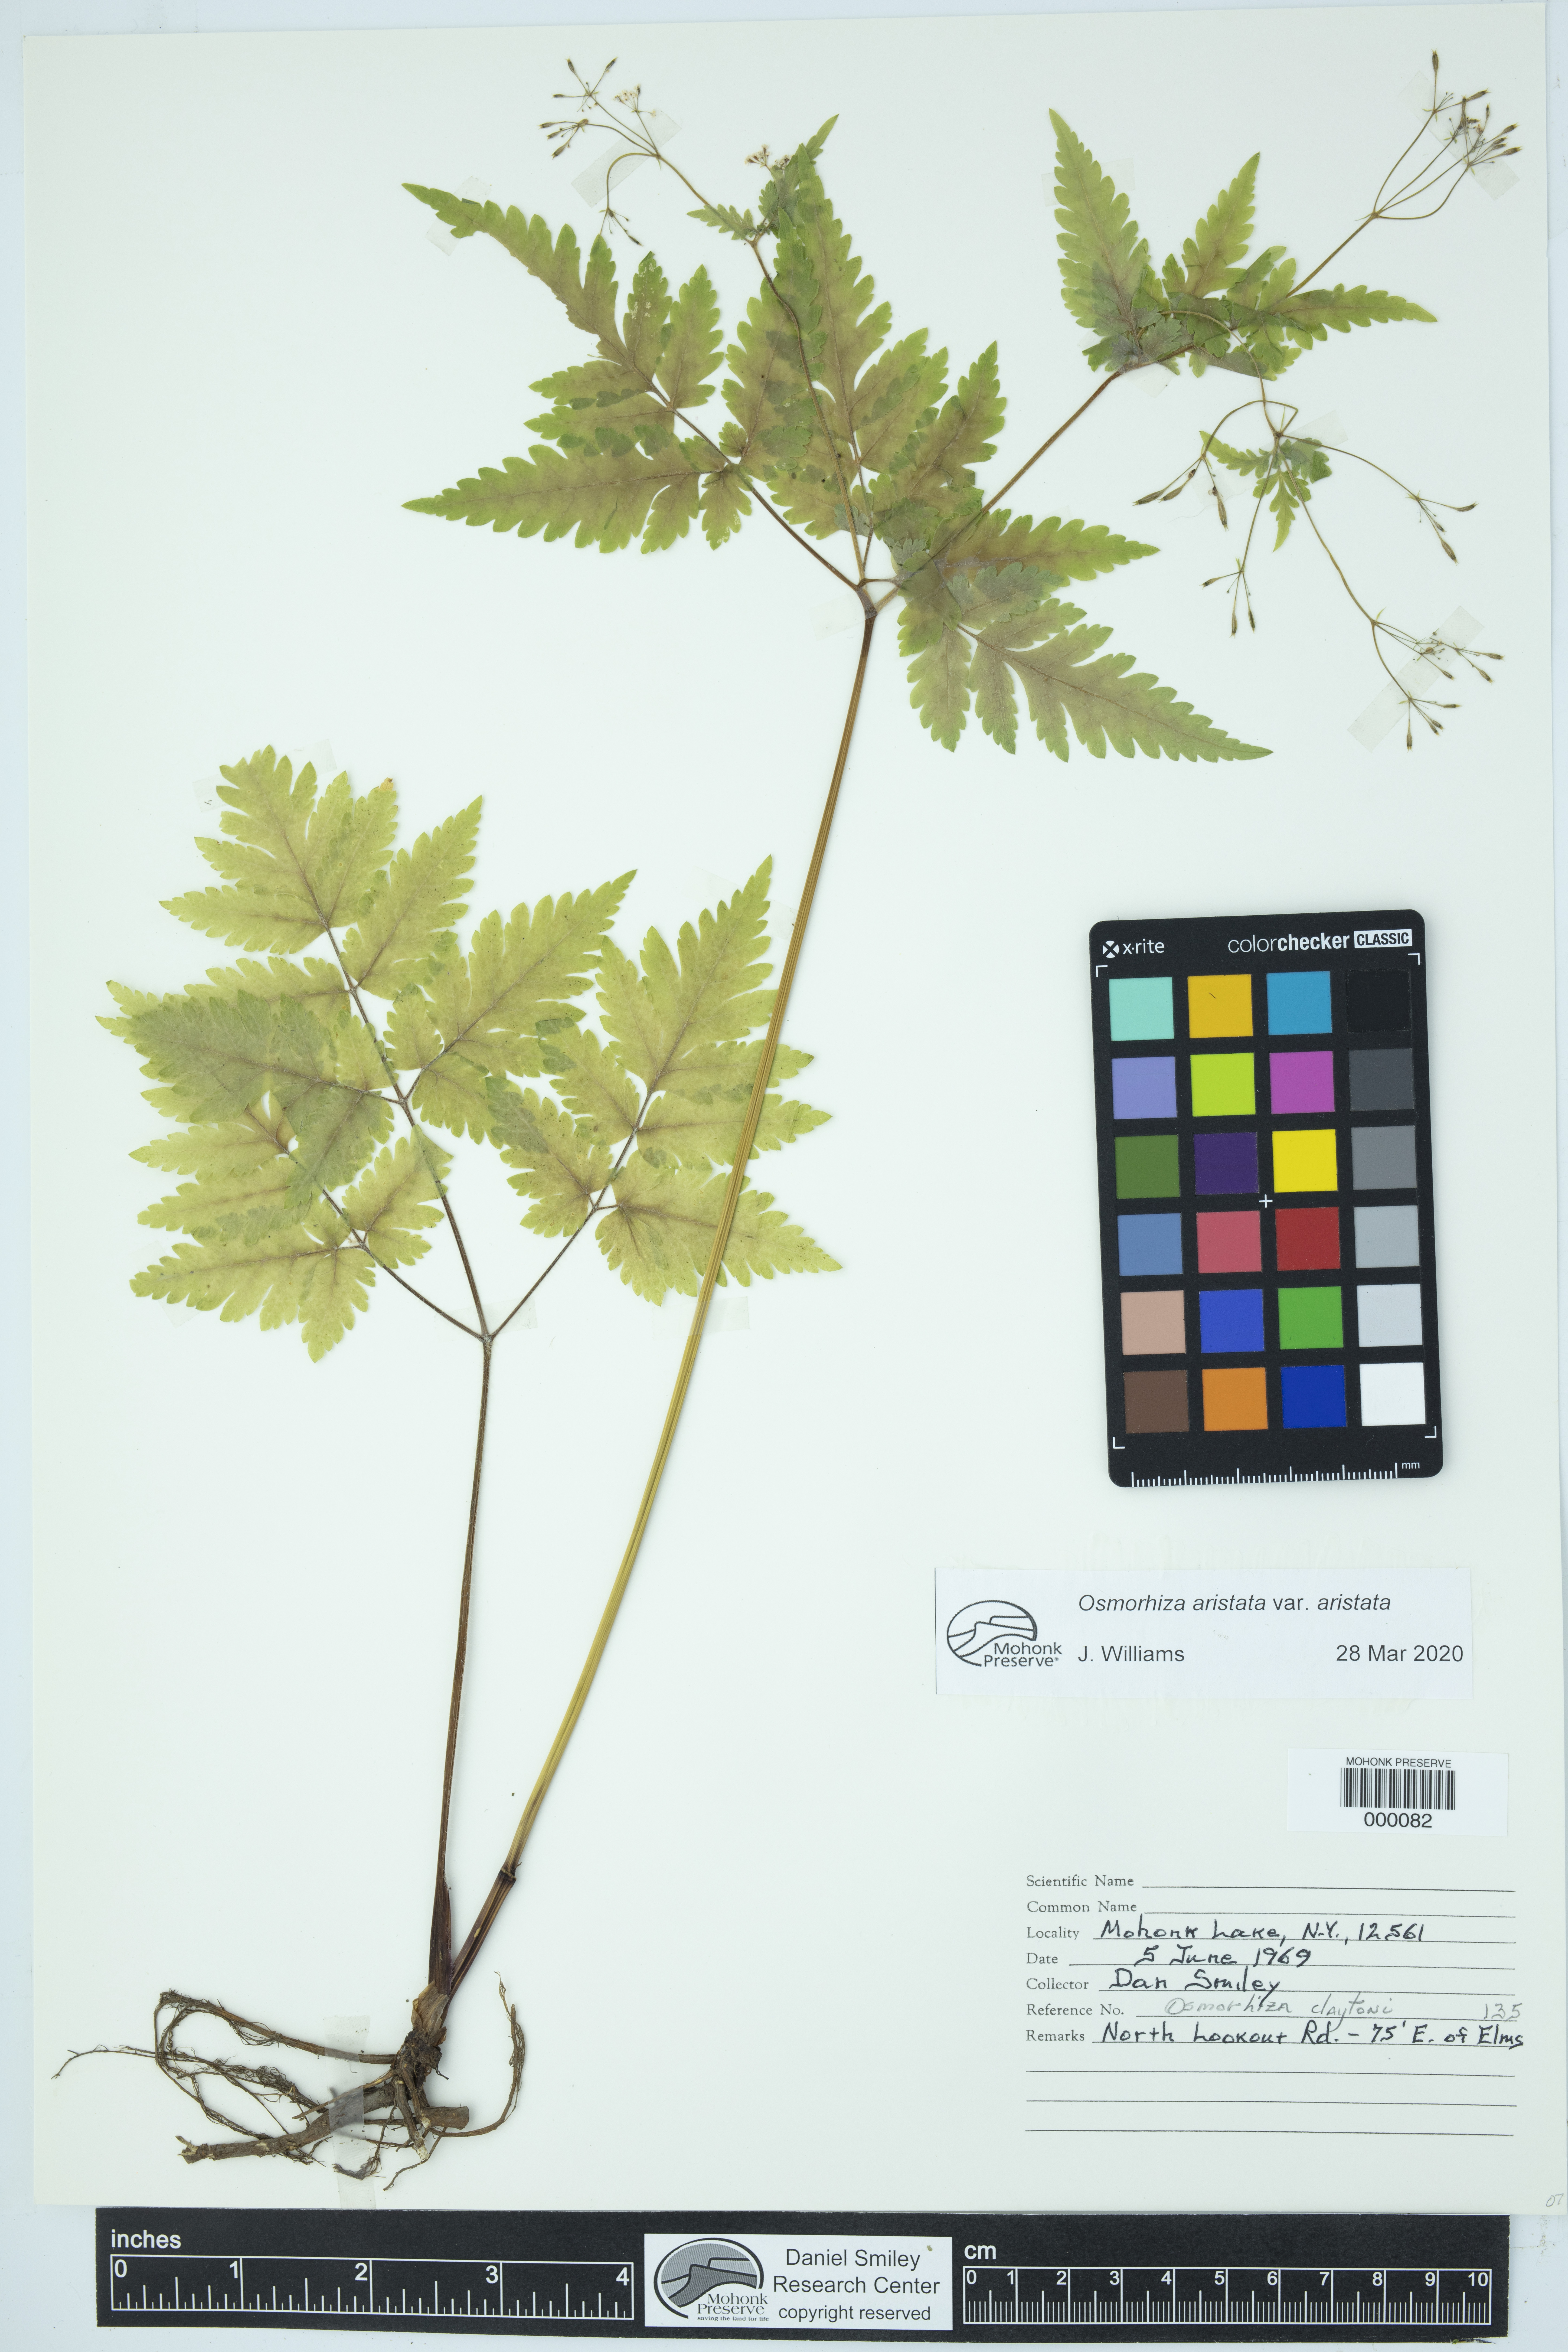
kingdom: Plantae
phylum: Tracheophyta
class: Magnoliopsida
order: Apiales
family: Apiaceae
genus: Osmorhiza
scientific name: Osmorhiza aristata
